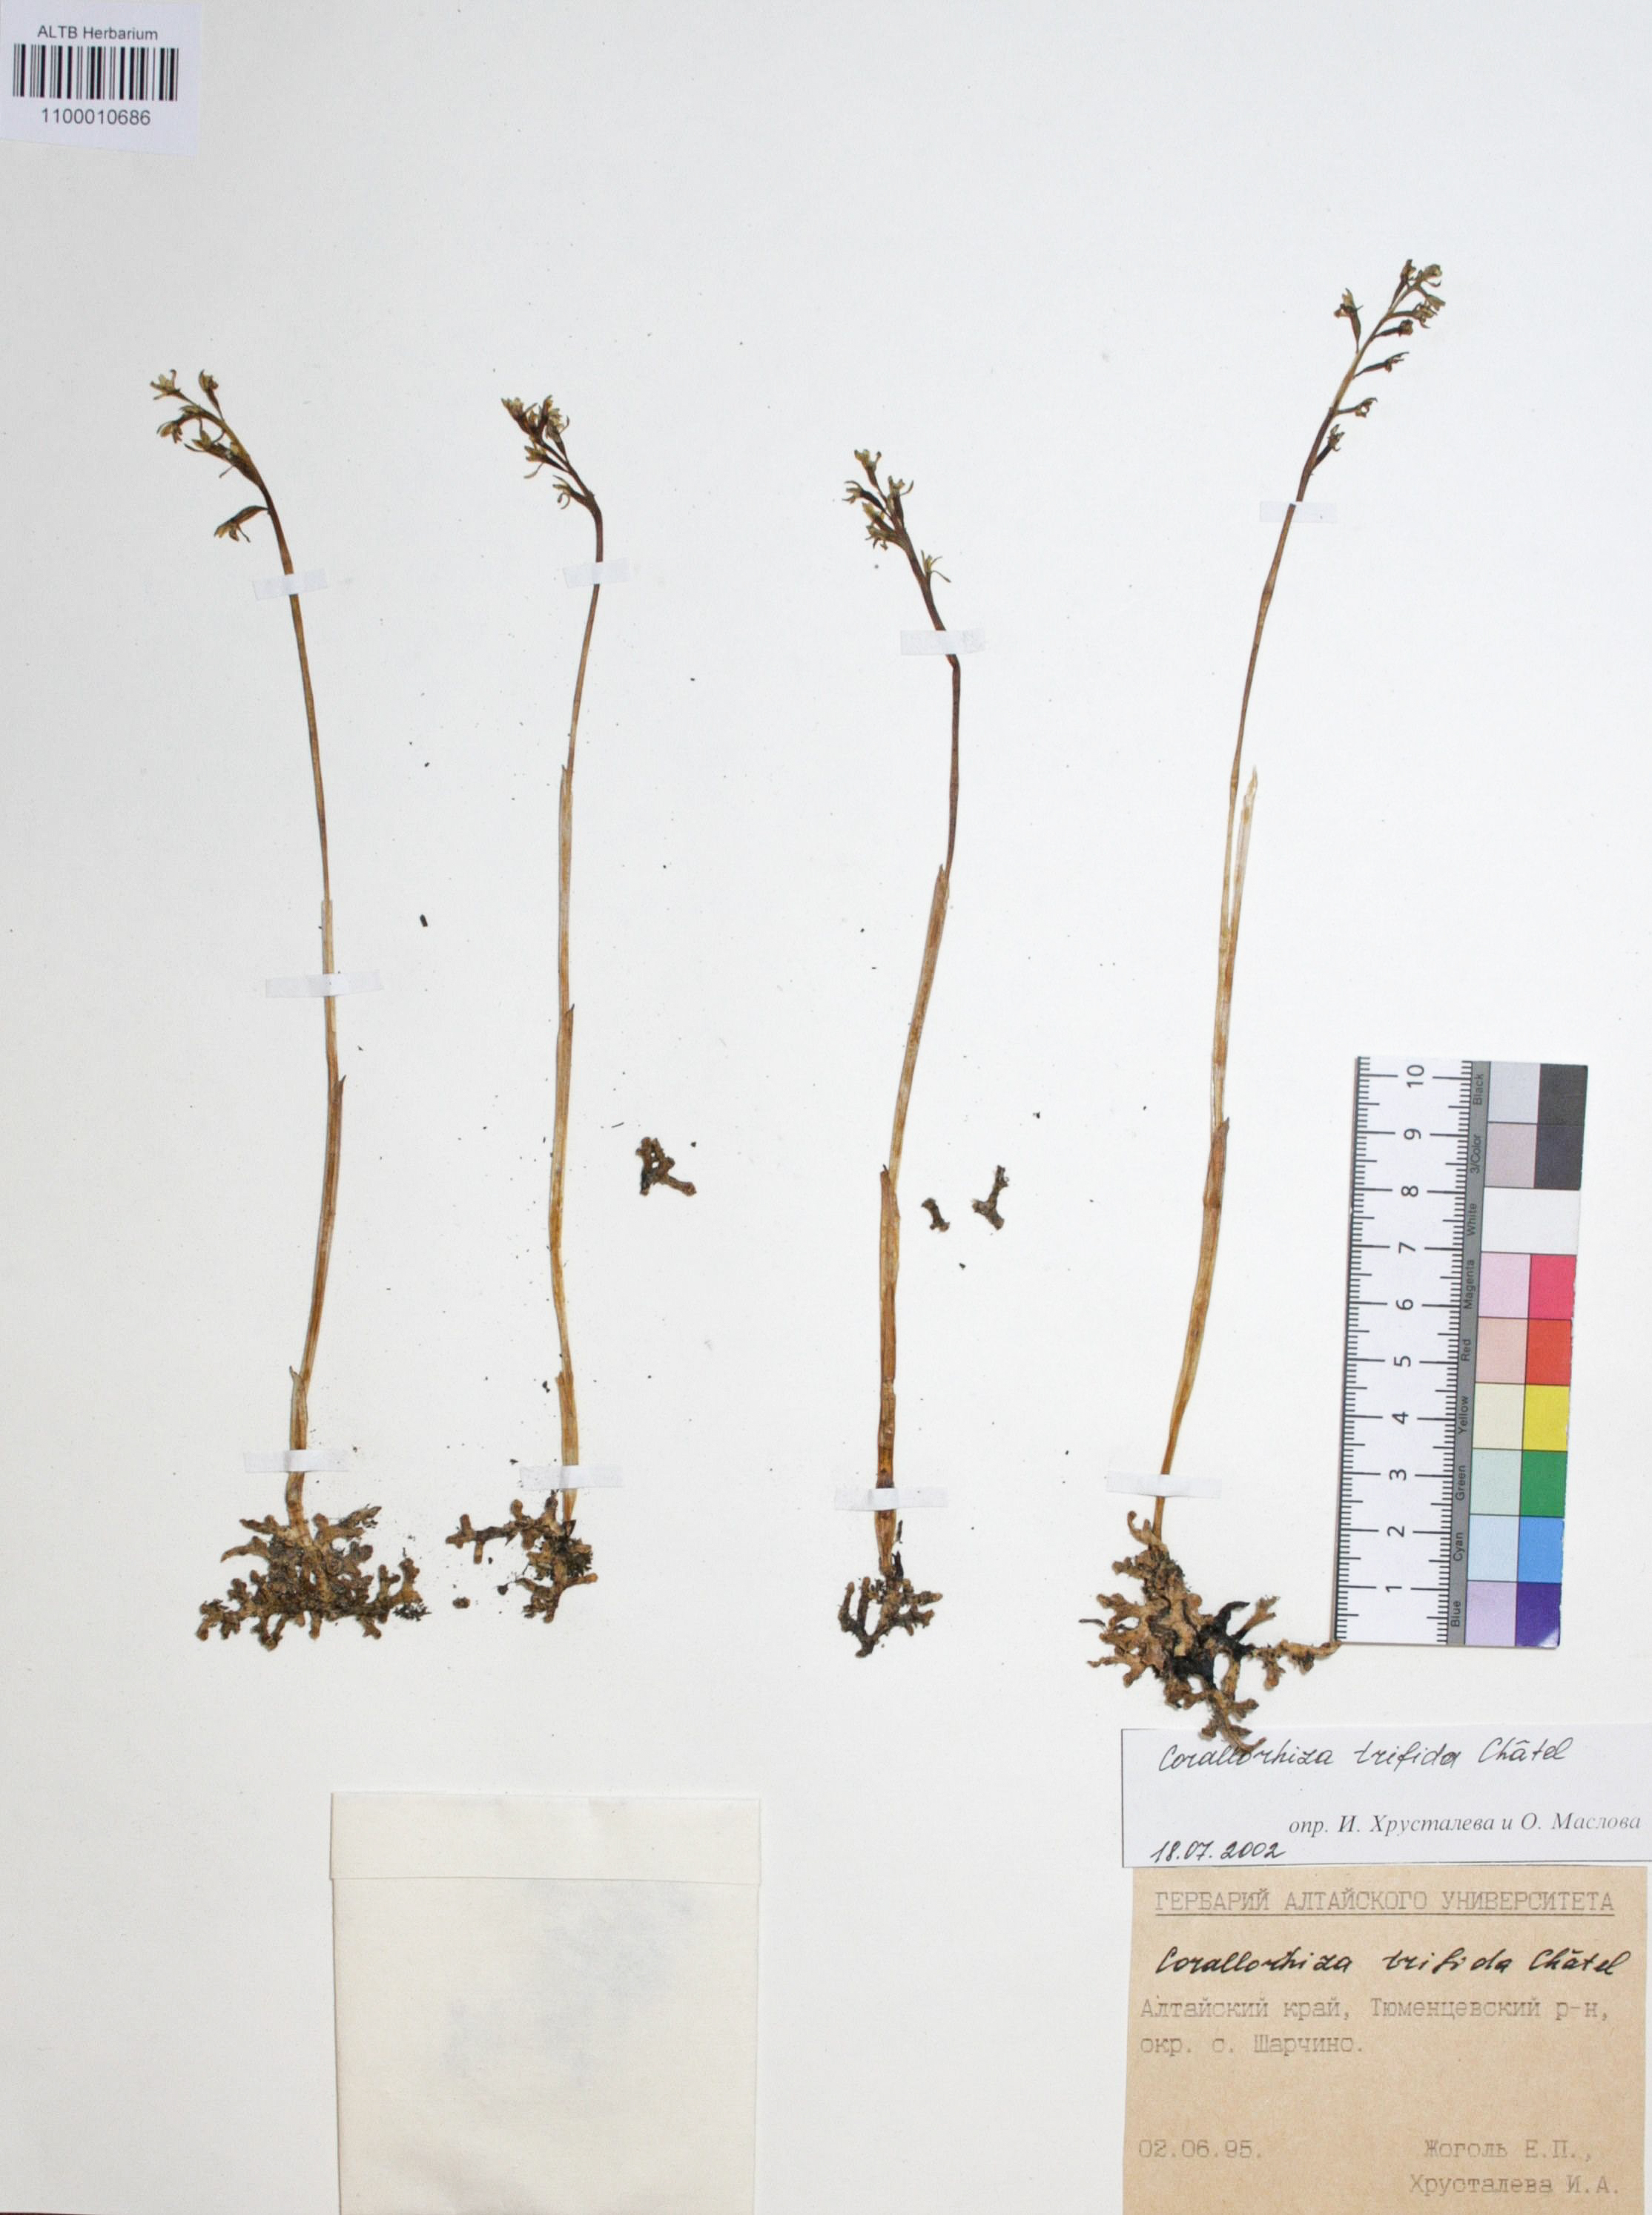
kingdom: Plantae
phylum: Tracheophyta
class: Liliopsida
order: Asparagales
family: Orchidaceae
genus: Corallorhiza
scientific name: Corallorhiza trifida
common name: Yellow coralroot
